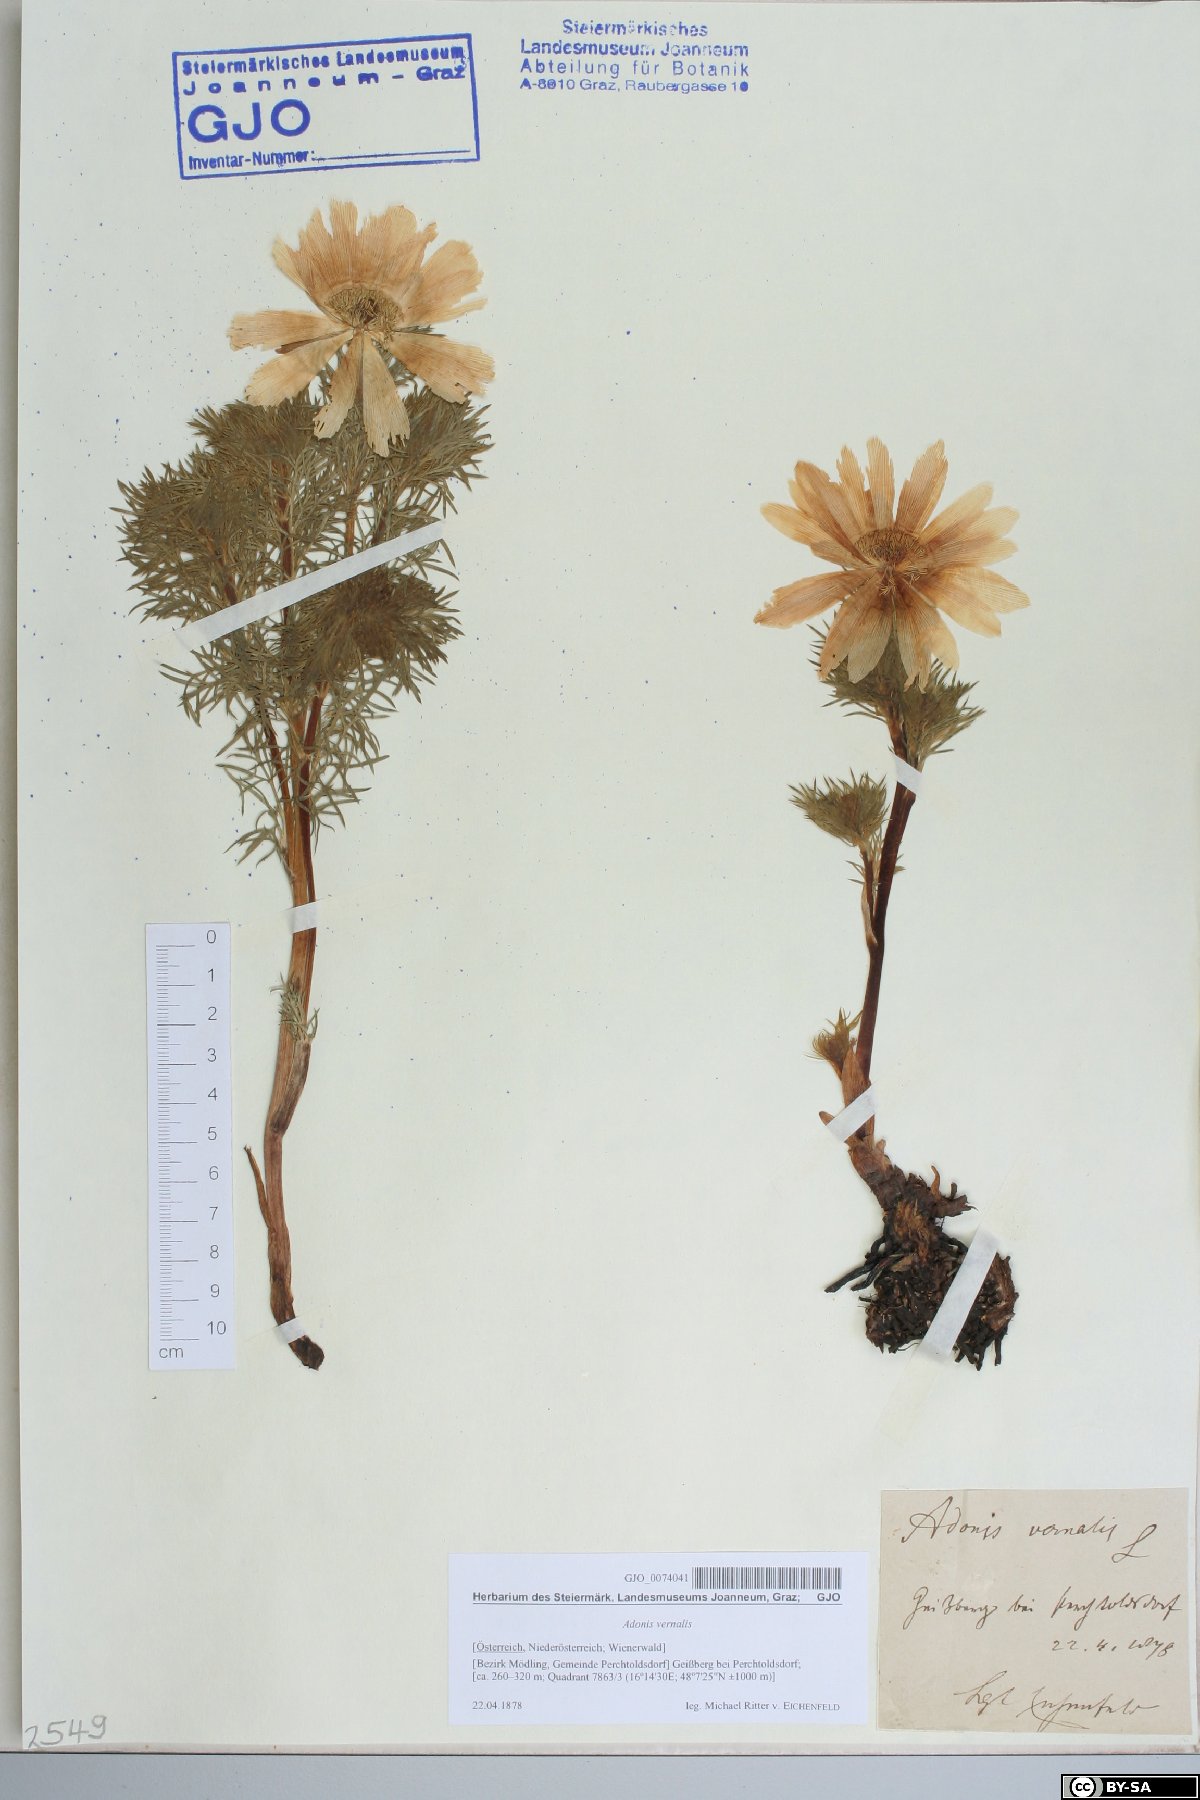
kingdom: Plantae
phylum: Tracheophyta
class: Magnoliopsida
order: Ranunculales
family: Ranunculaceae
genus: Adonis
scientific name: Adonis vernalis
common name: Yellow pheasants-eye
